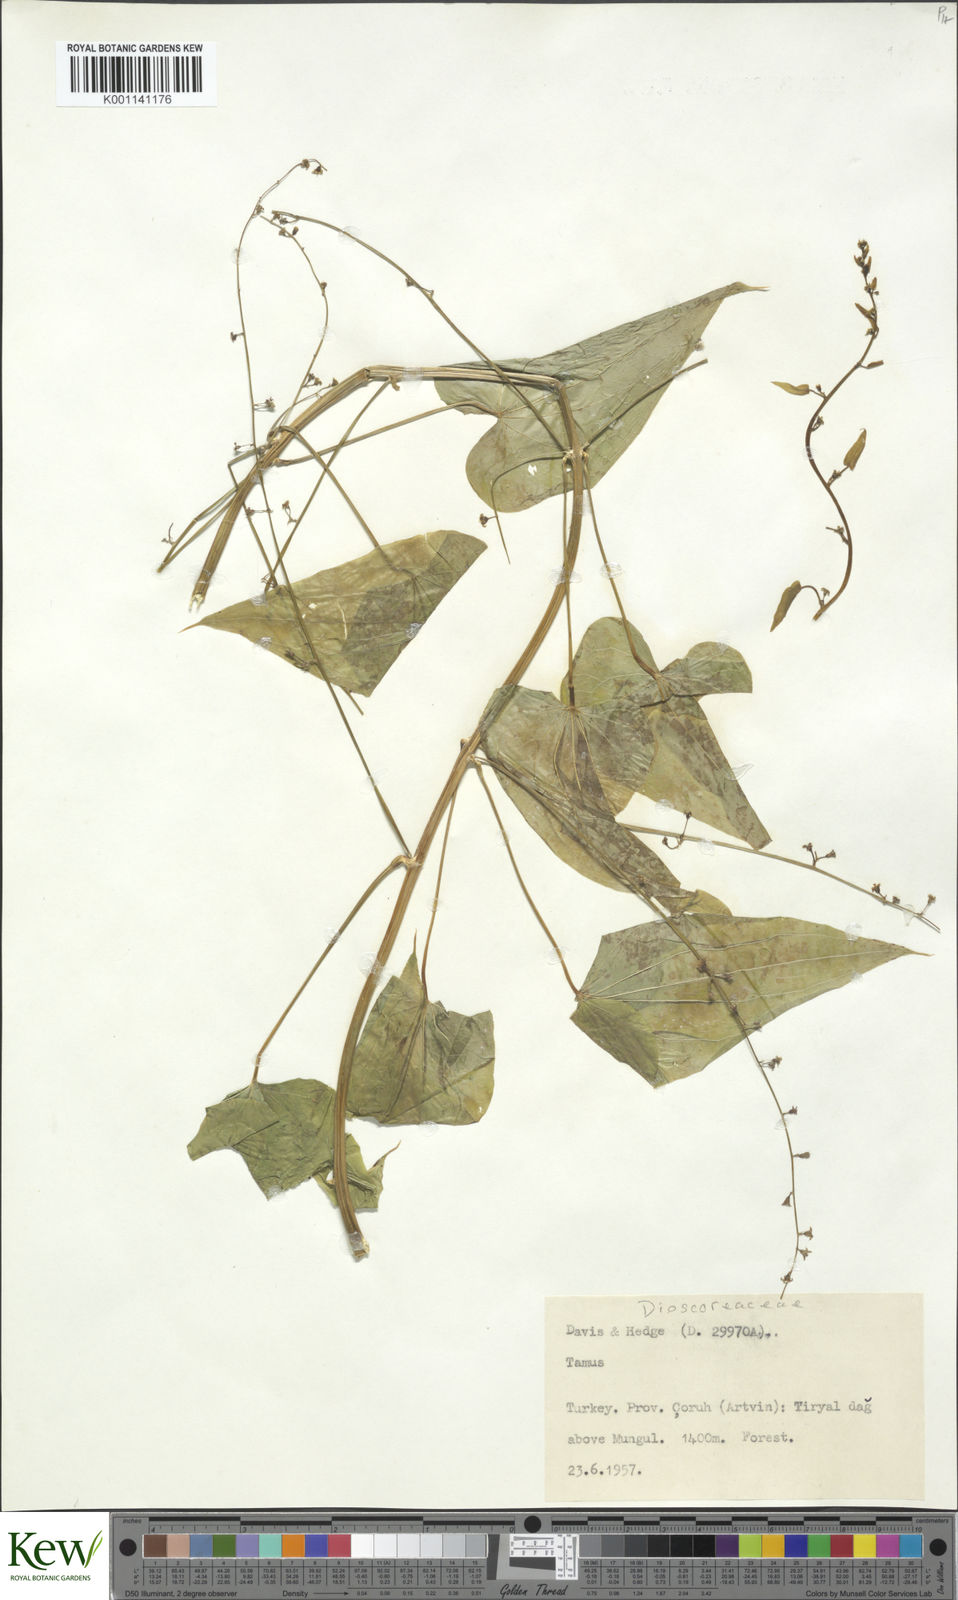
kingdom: Plantae
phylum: Tracheophyta
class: Liliopsida
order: Dioscoreales
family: Dioscoreaceae
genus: Dioscorea
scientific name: Dioscorea communis
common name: Black-bindweed
